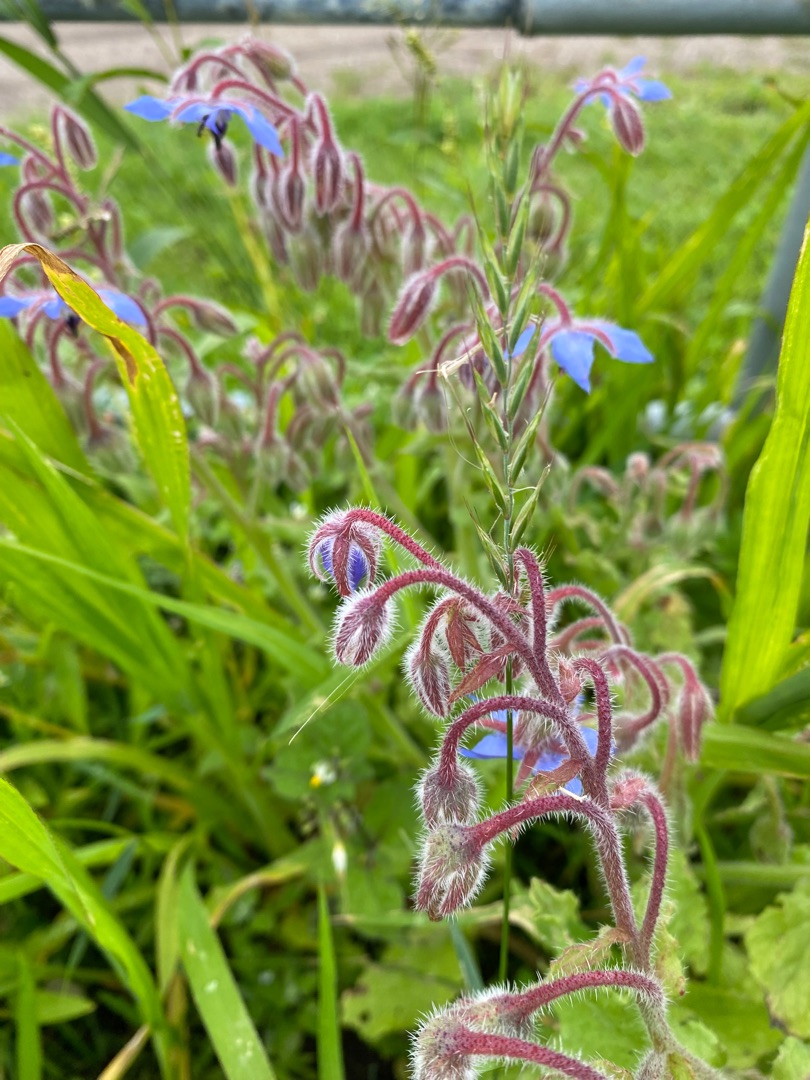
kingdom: Plantae
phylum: Tracheophyta
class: Magnoliopsida
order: Boraginales
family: Boraginaceae
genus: Borago
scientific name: Borago officinalis
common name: Hjulkrone
